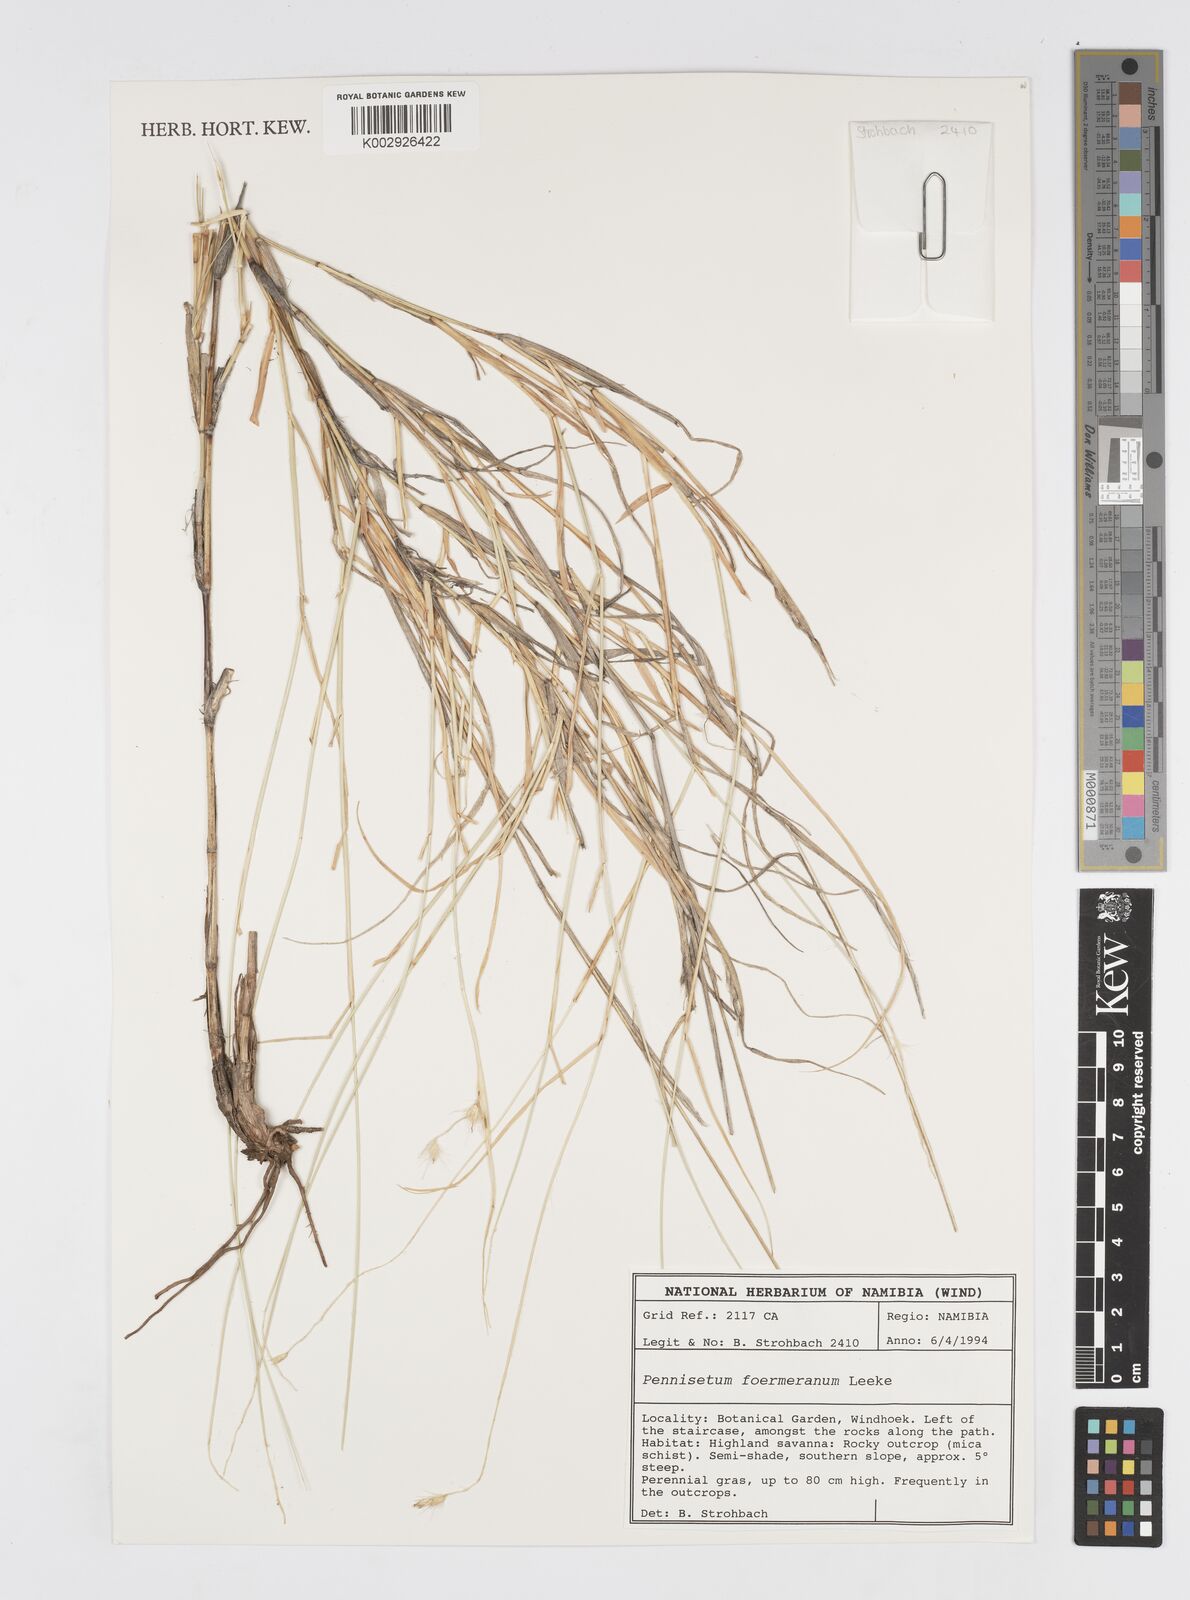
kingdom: Plantae
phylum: Tracheophyta
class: Liliopsida
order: Poales
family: Poaceae
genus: Cenchrus
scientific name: Cenchrus foermerianus
